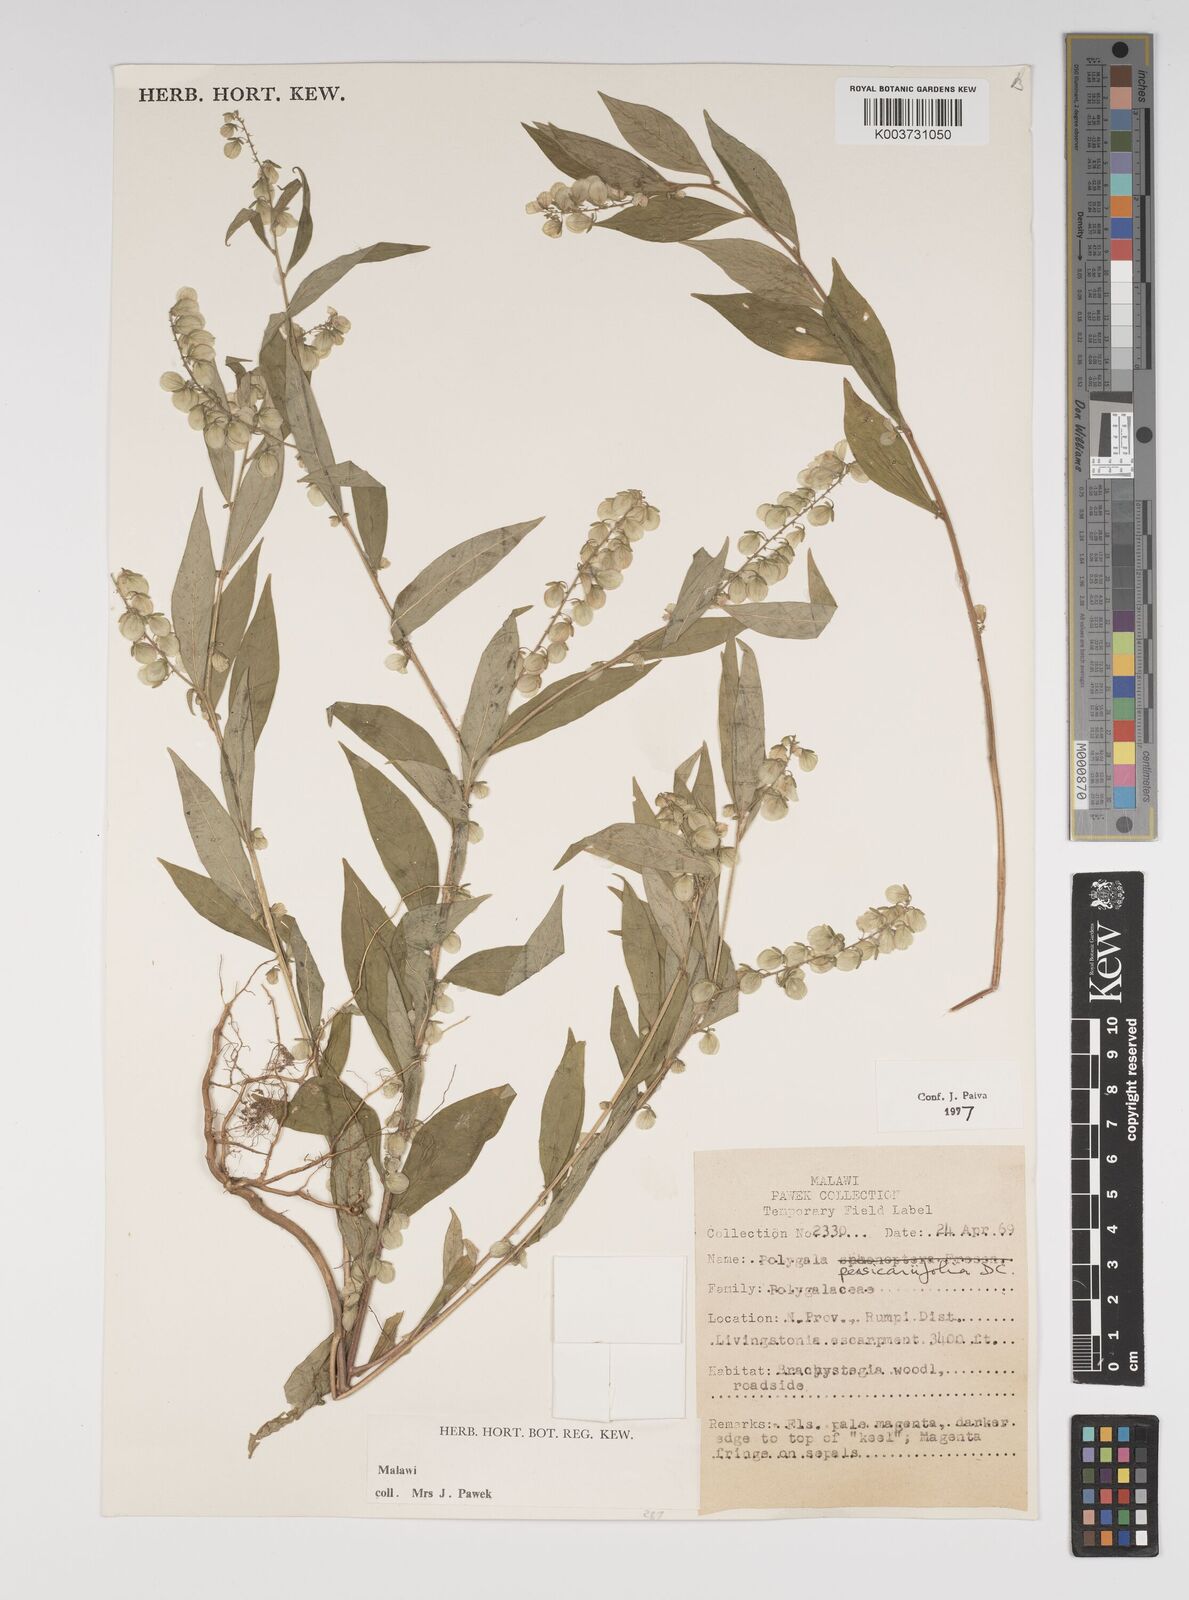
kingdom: Plantae
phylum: Tracheophyta
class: Magnoliopsida
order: Fabales
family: Polygalaceae
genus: Polygala
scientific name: Polygala persicariifolia
